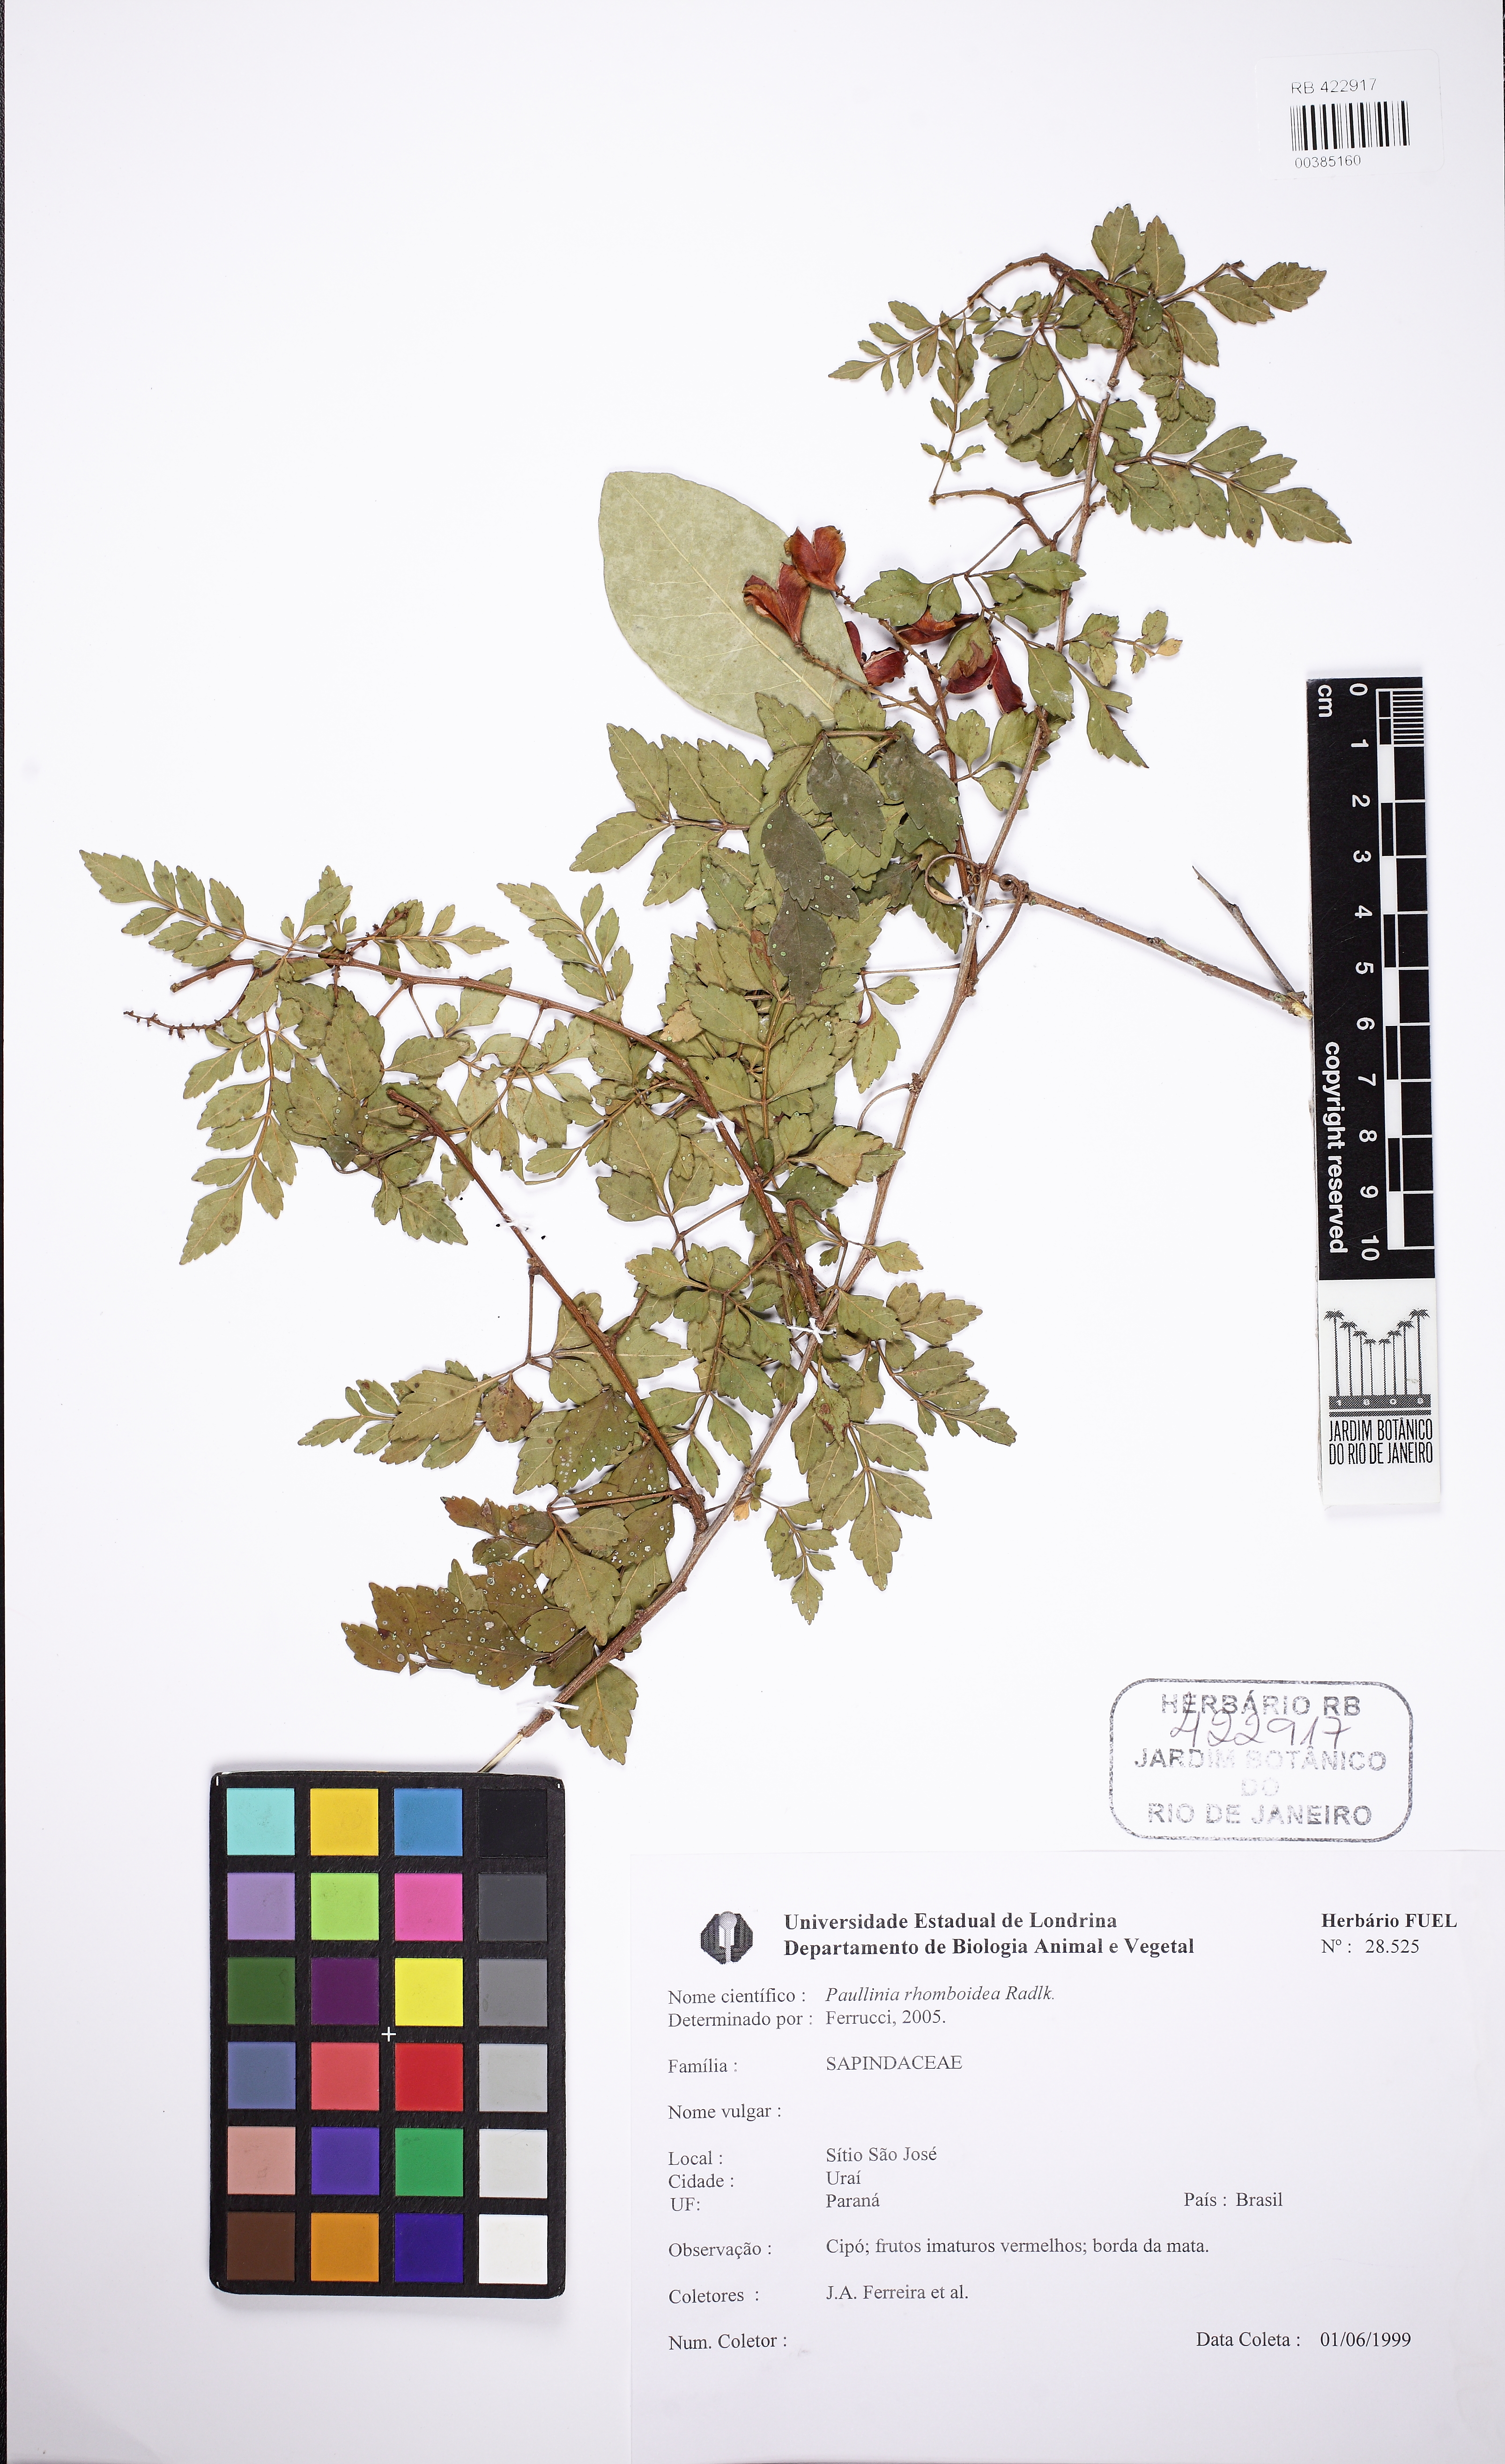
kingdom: Plantae
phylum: Tracheophyta
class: Magnoliopsida
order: Sapindales
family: Sapindaceae
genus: Paullinia
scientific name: Paullinia rhomboidea
